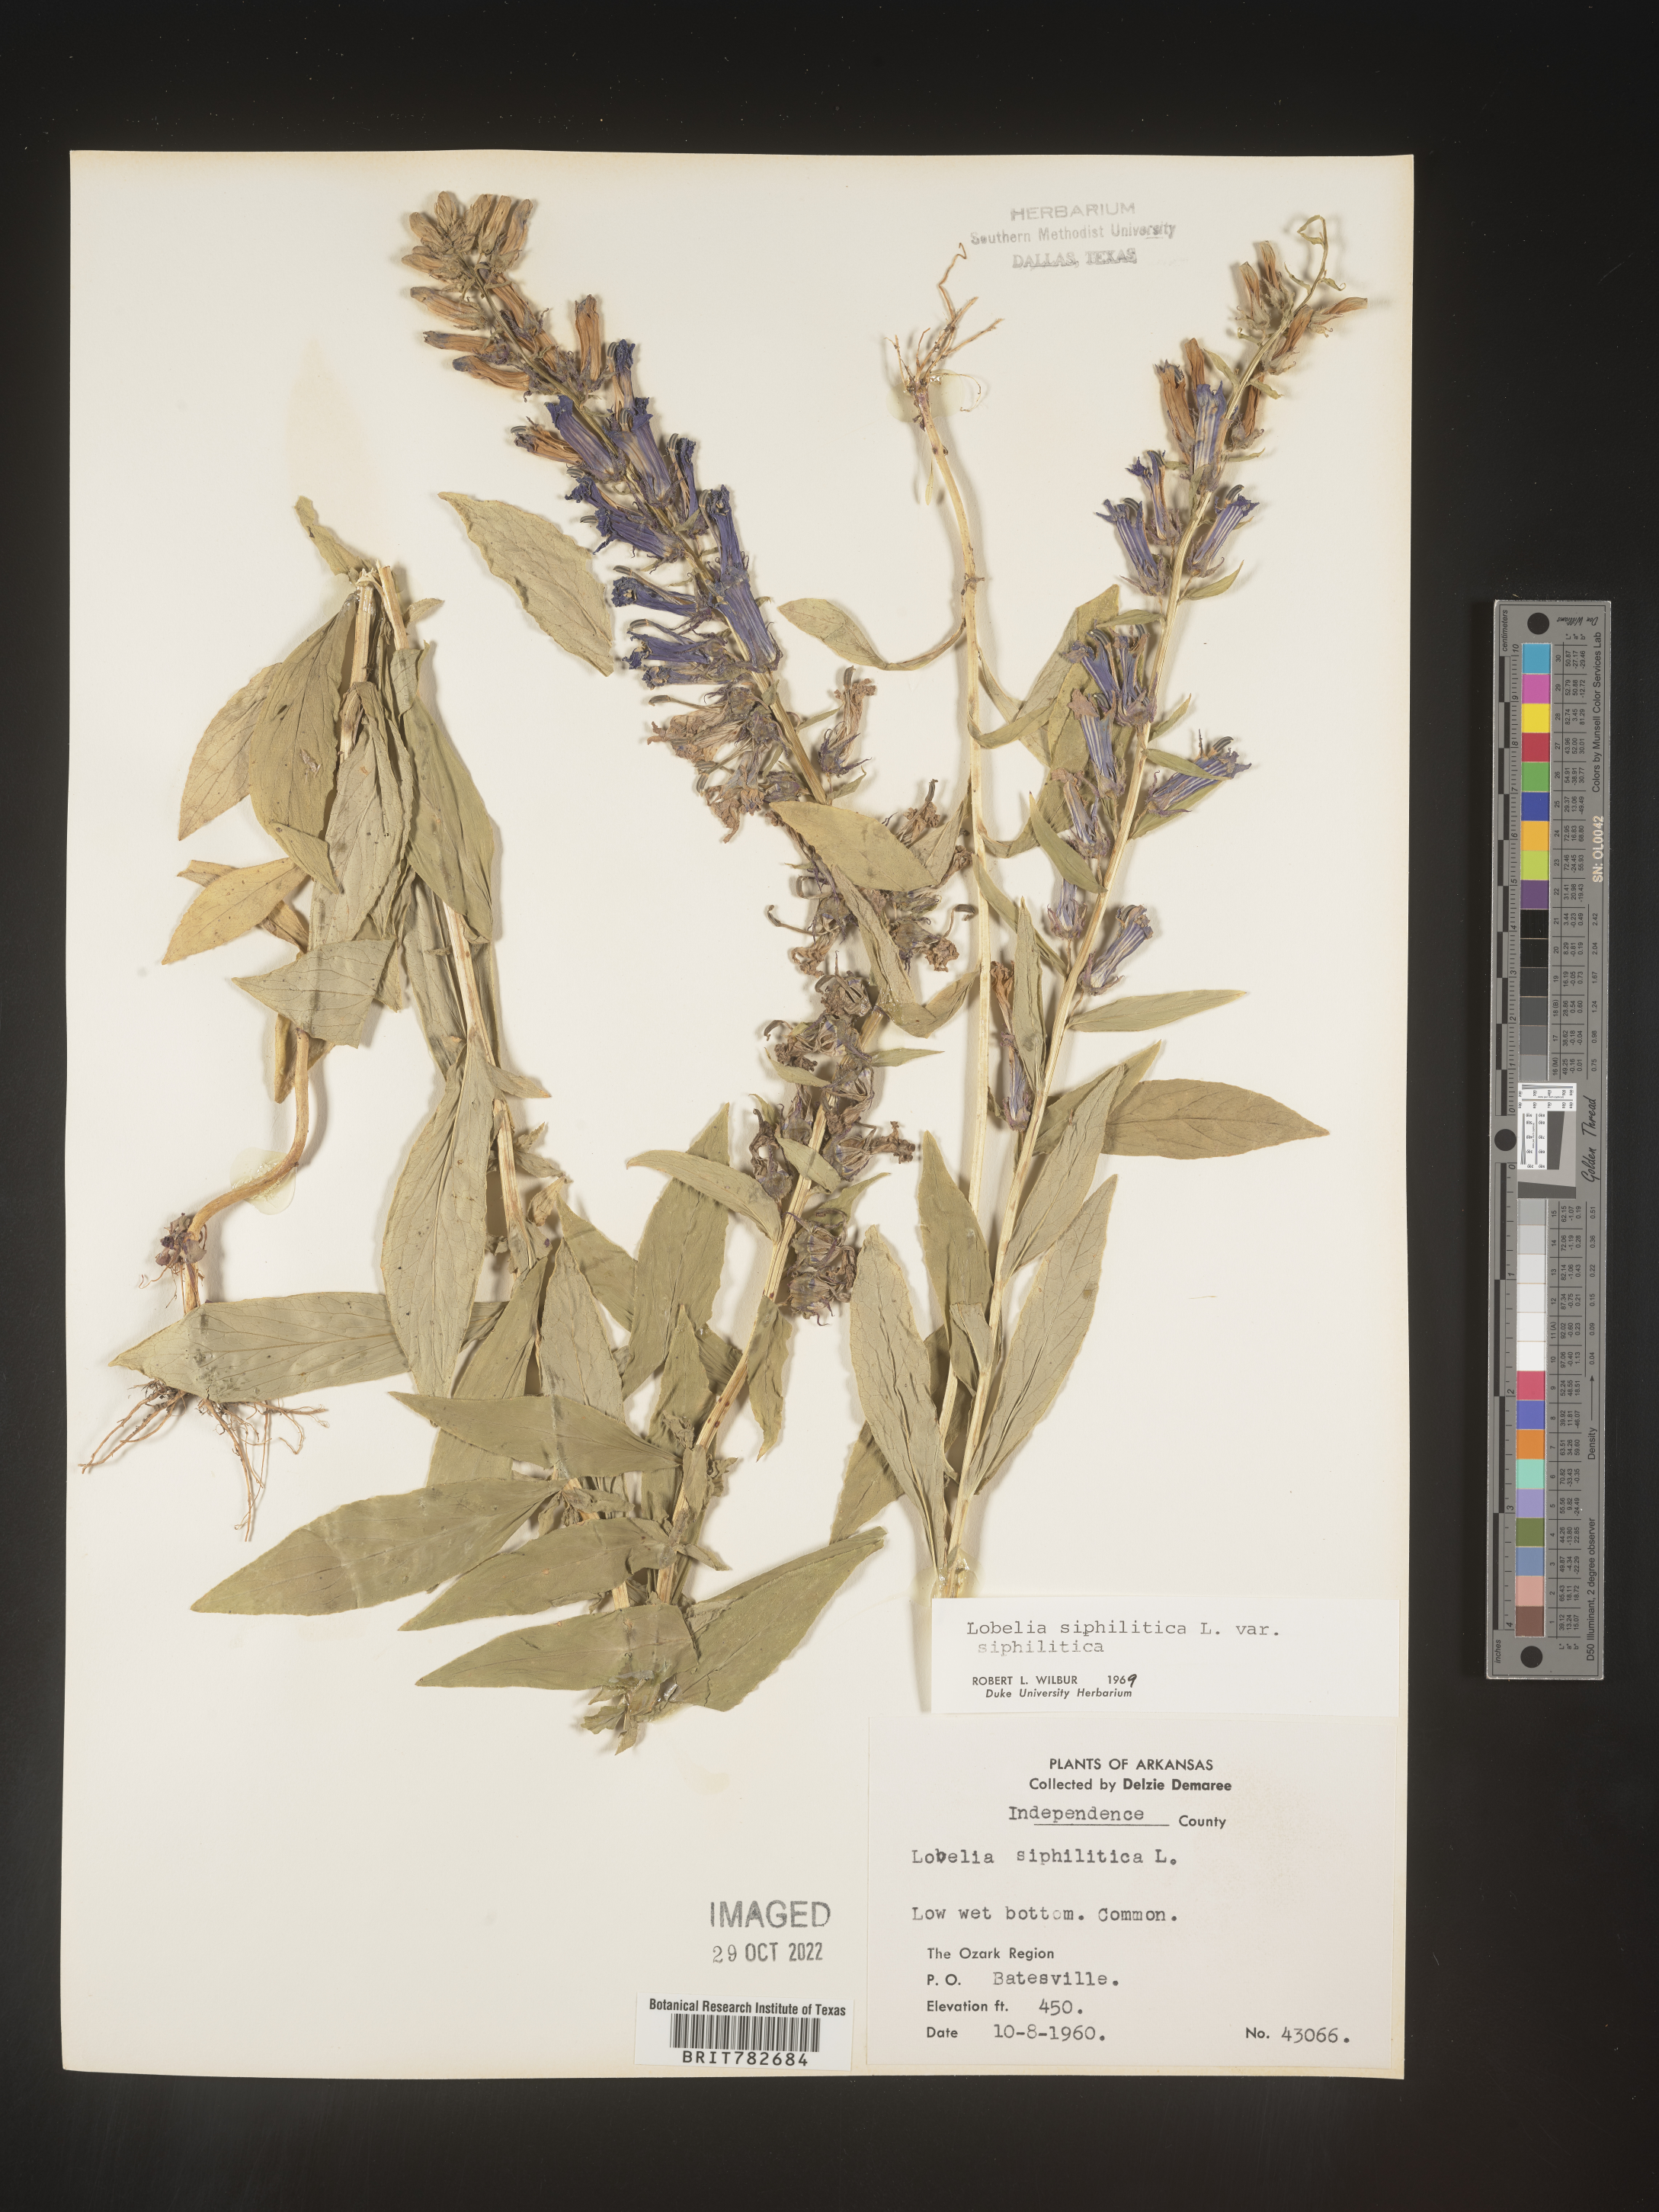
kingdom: Plantae
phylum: Tracheophyta
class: Magnoliopsida
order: Asterales
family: Campanulaceae
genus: Lobelia
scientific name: Lobelia siphilitica
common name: Great lobelia
